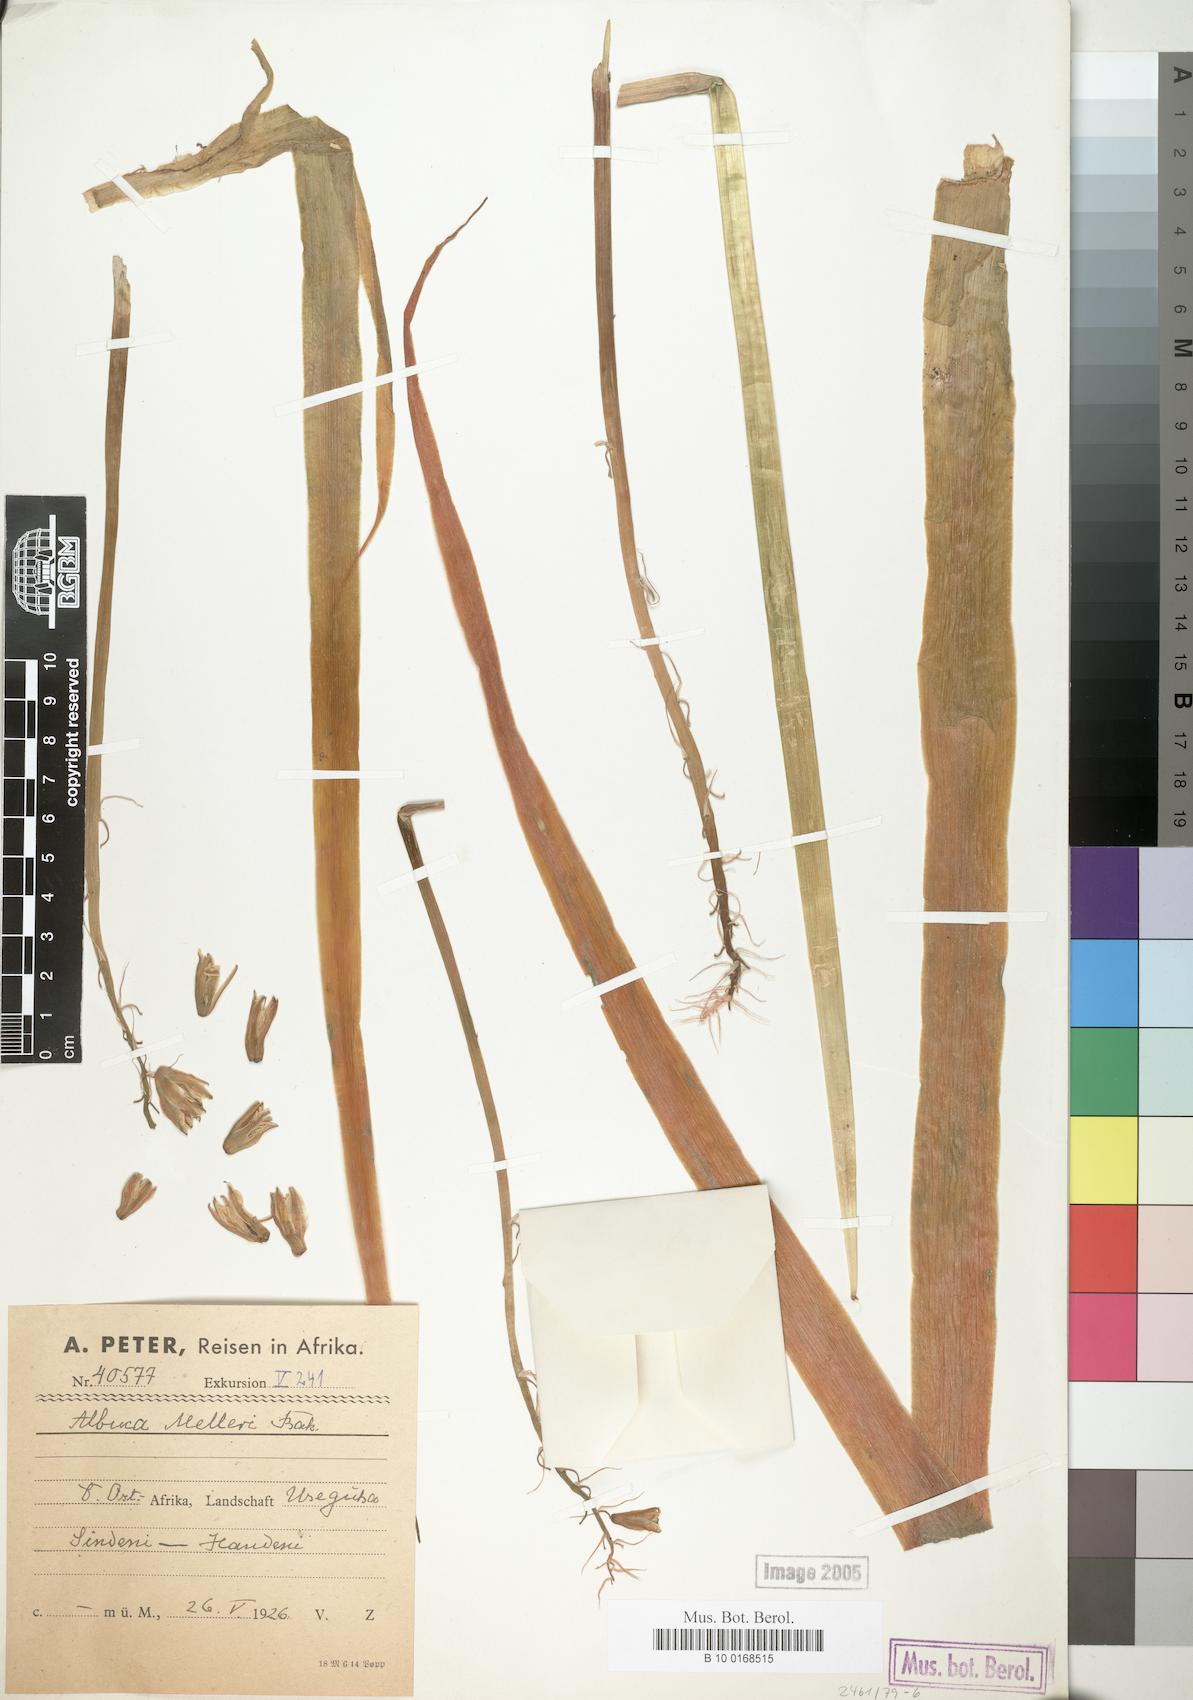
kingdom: Plantae
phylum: Tracheophyta
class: Liliopsida
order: Asparagales
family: Asparagaceae
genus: Albuca
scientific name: Albuca abyssinica
